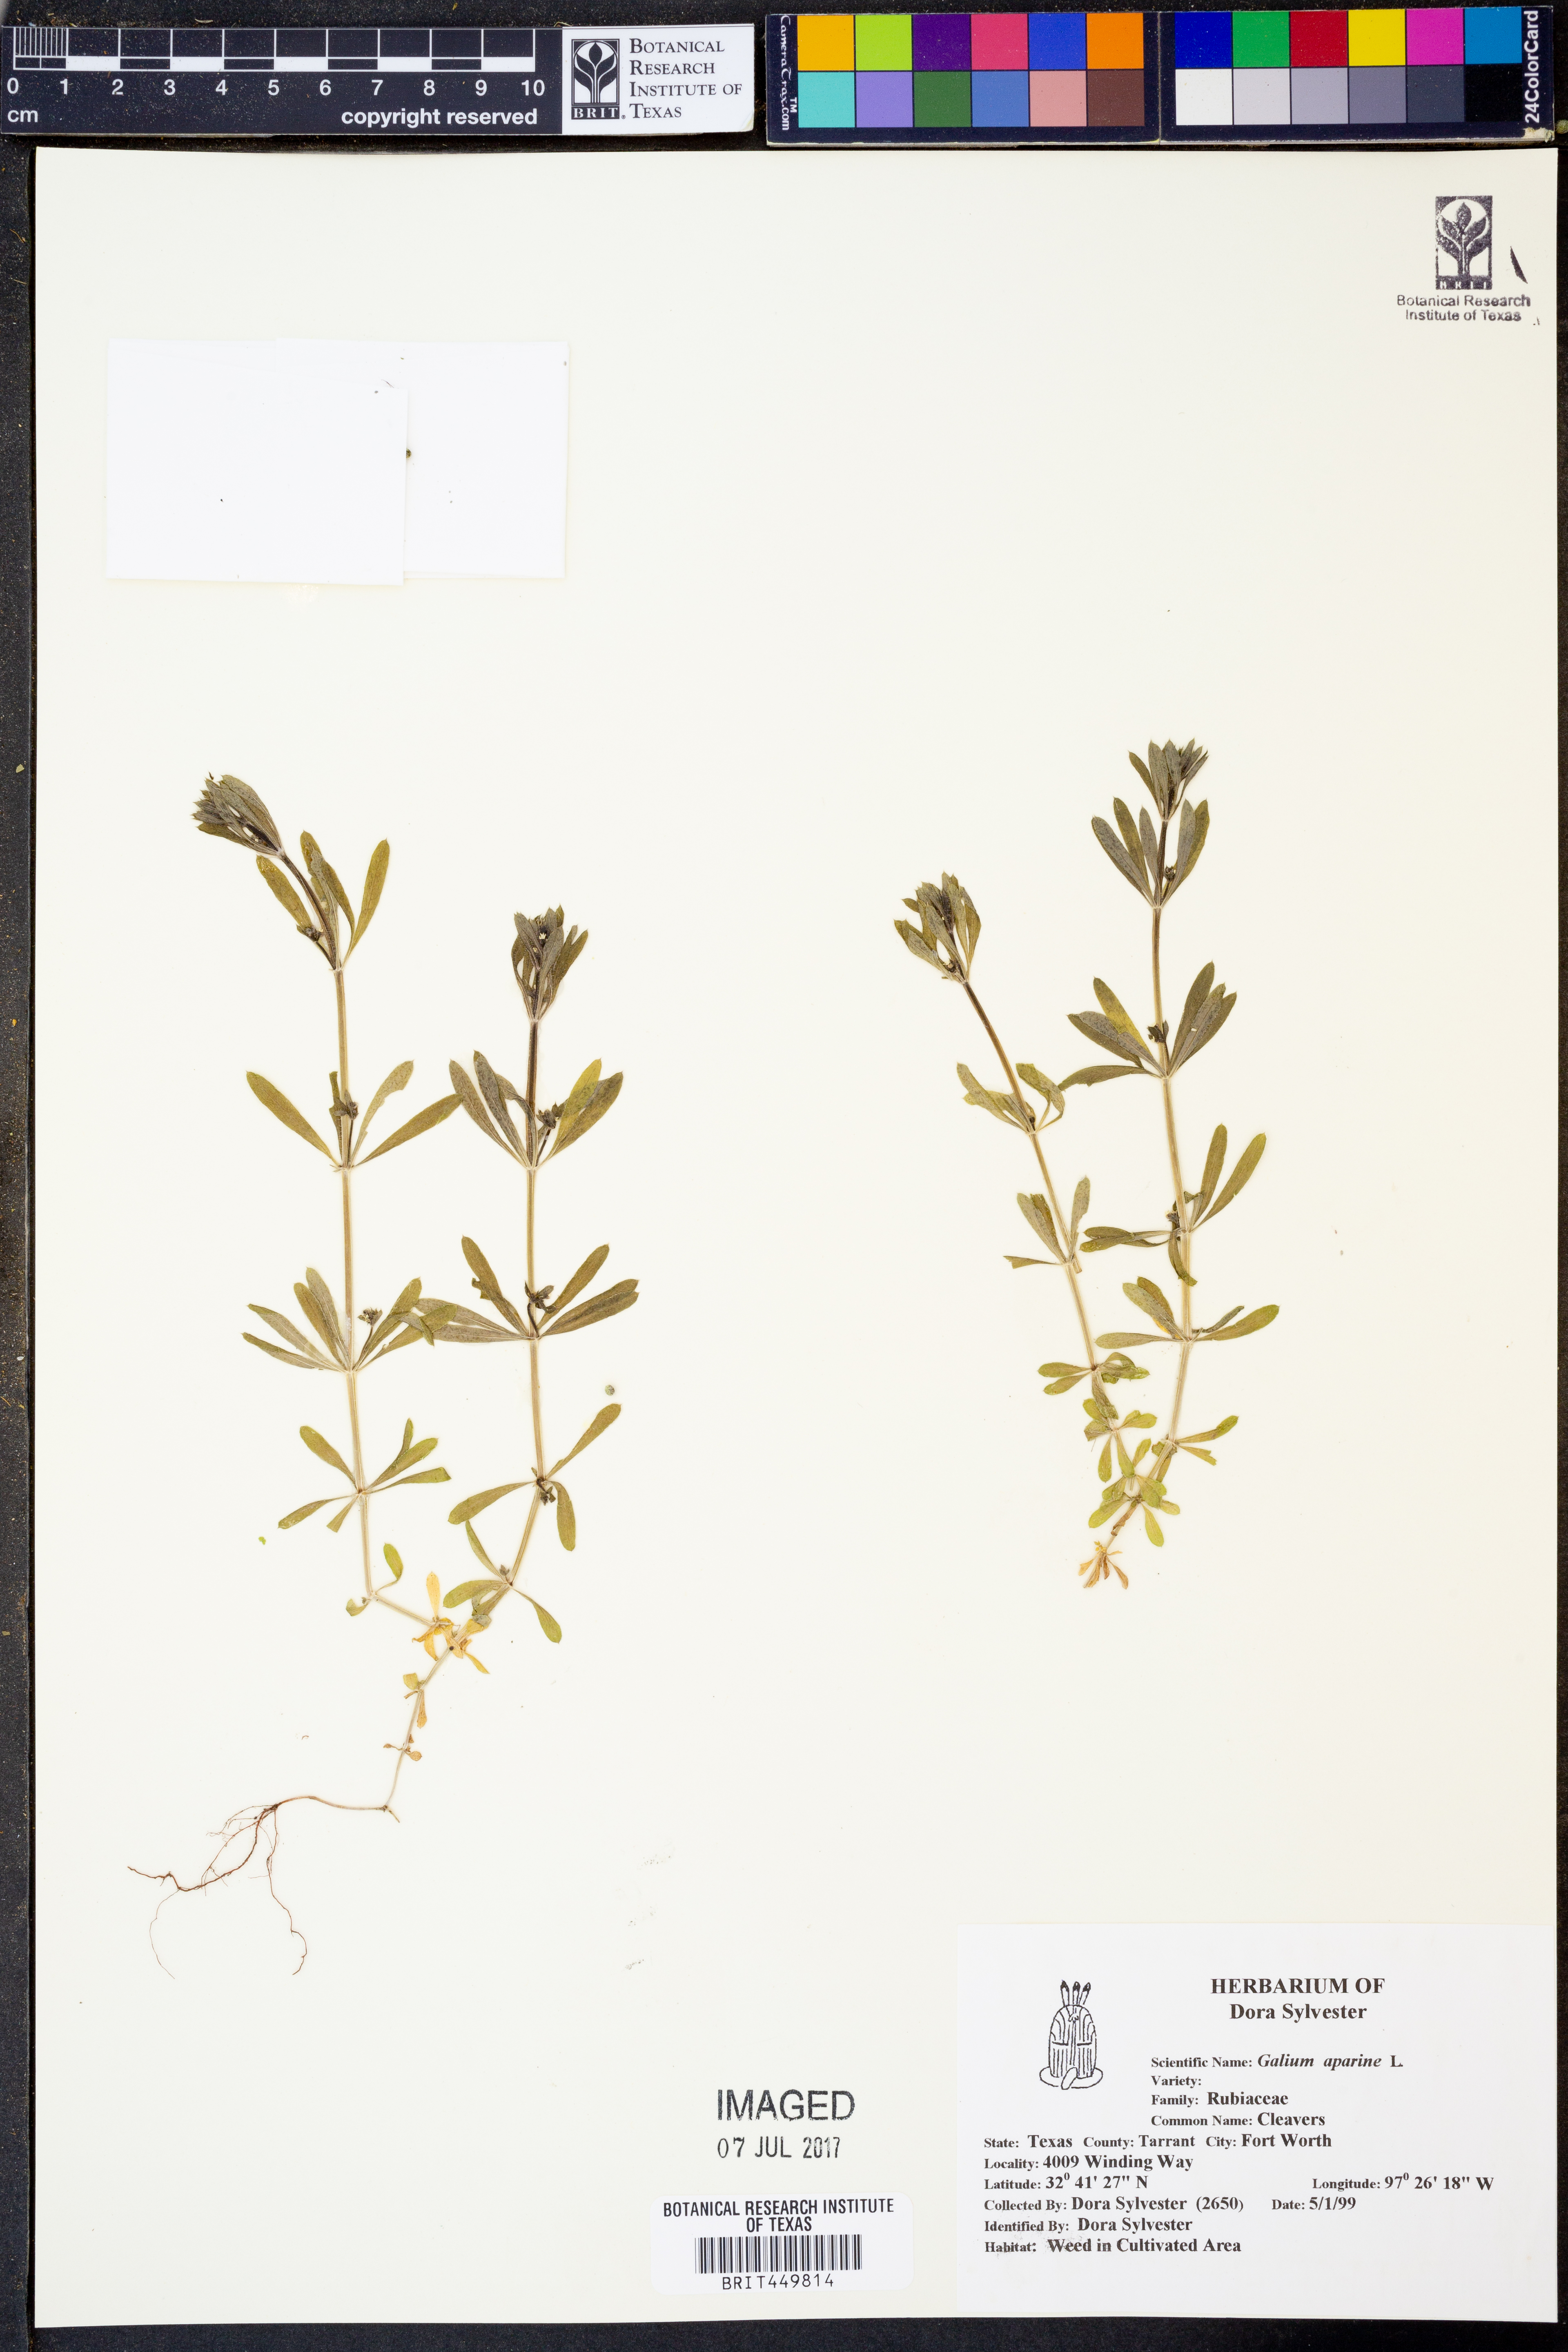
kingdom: Plantae
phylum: Tracheophyta
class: Magnoliopsida
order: Gentianales
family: Rubiaceae
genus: Galium
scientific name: Galium aparine
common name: Cleavers
